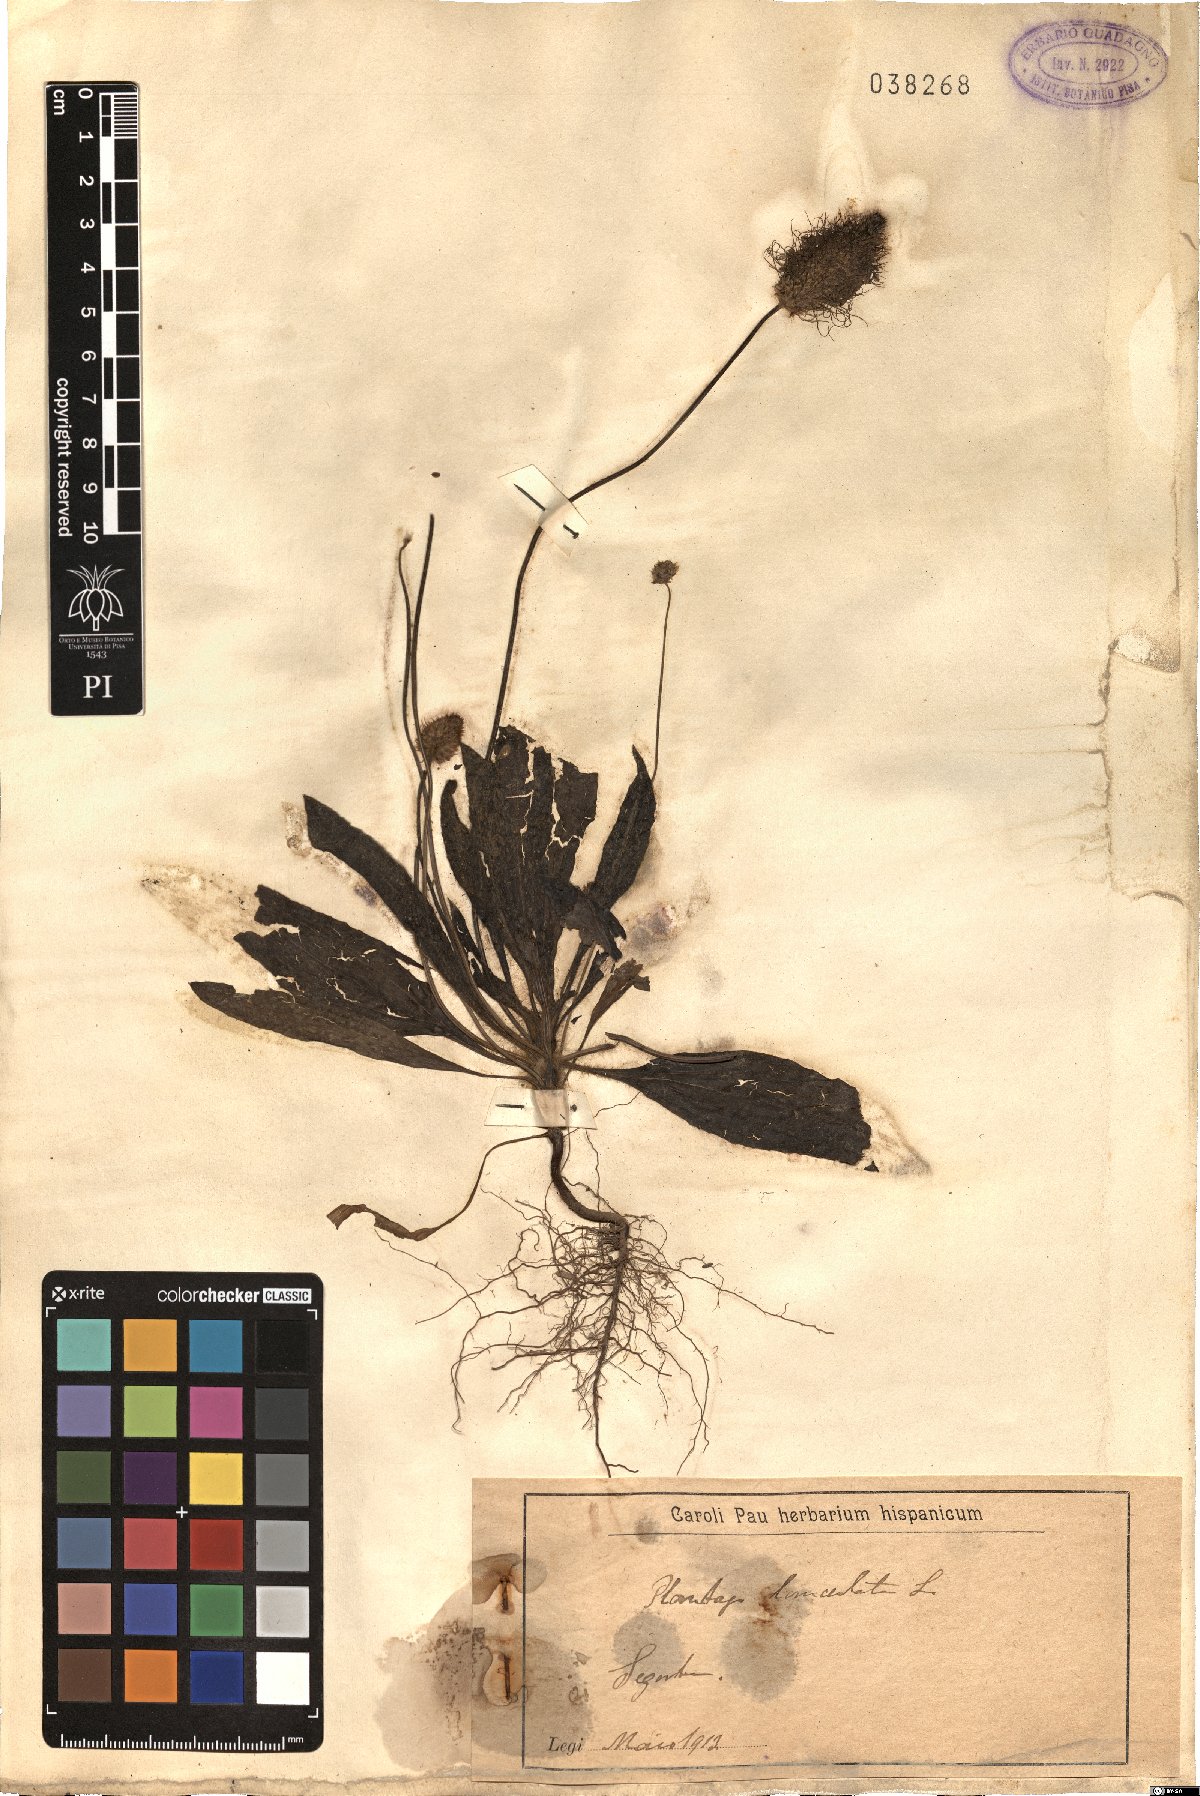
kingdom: Plantae
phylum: Tracheophyta
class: Magnoliopsida
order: Lamiales
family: Plantaginaceae
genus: Plantago
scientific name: Plantago lanceolata
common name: Ribwort plantain
